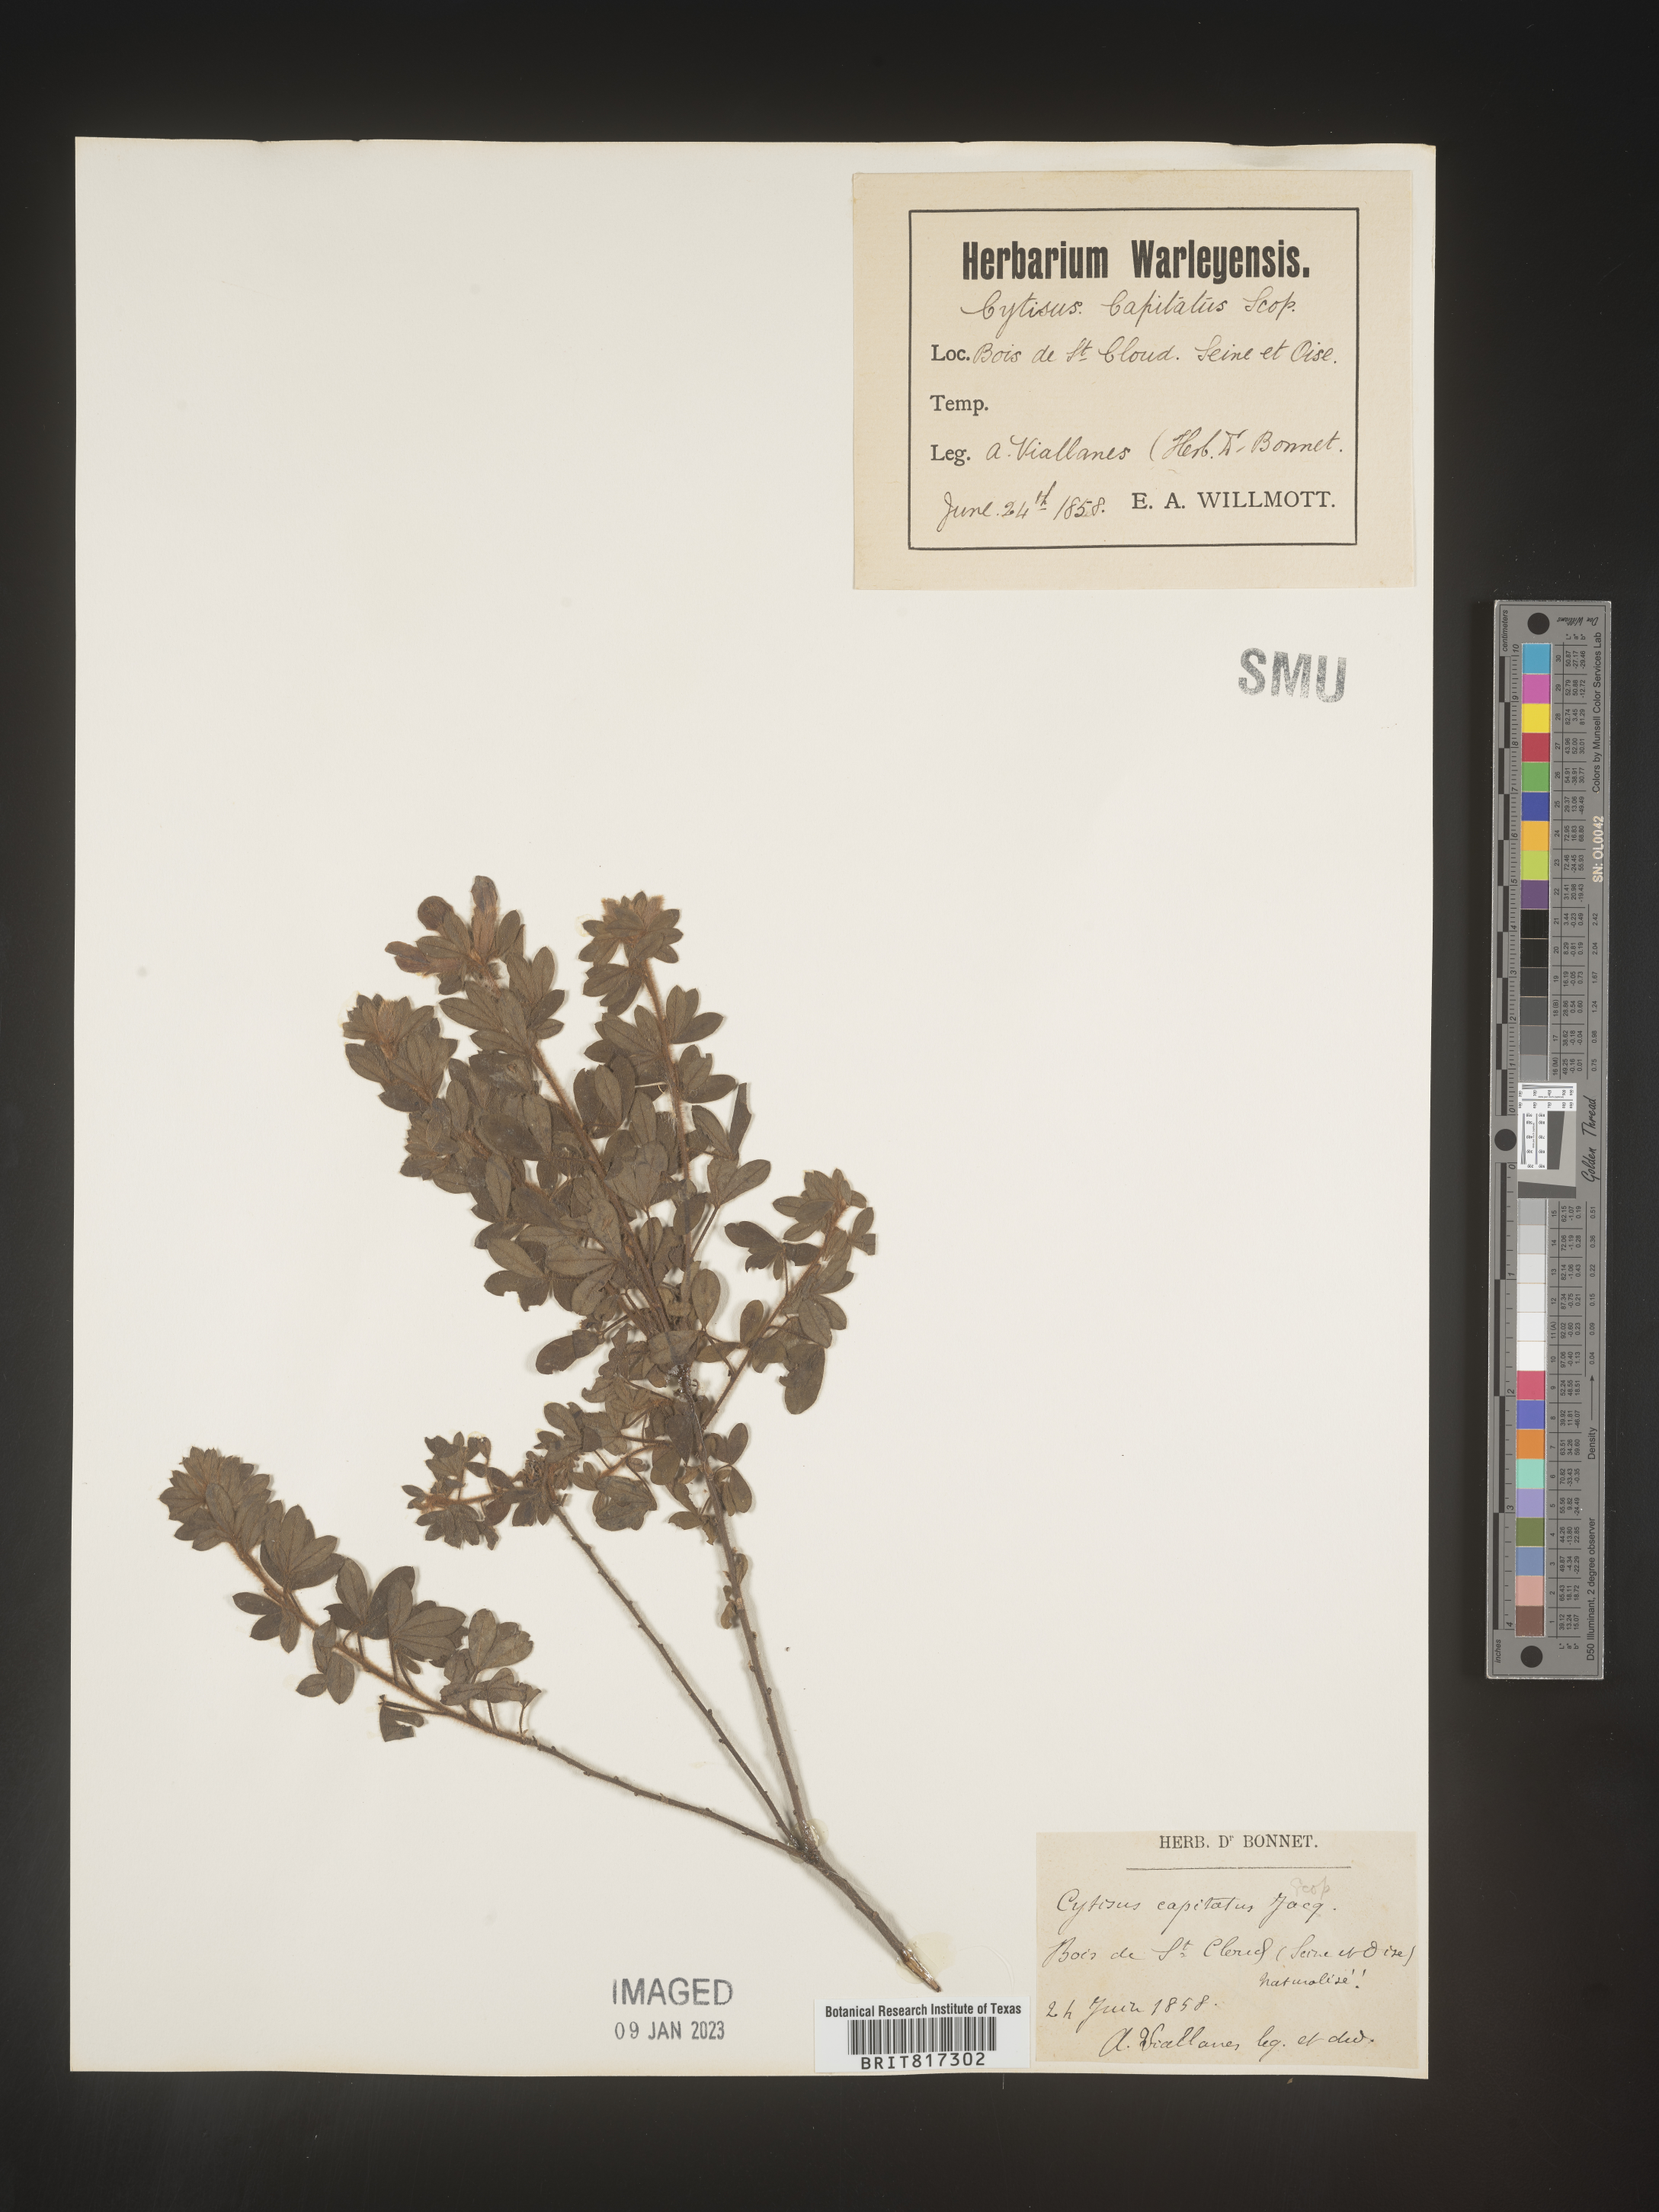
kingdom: Plantae
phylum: Tracheophyta
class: Magnoliopsida
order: Fabales
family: Fabaceae
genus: Cytisus
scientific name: Cytisus
